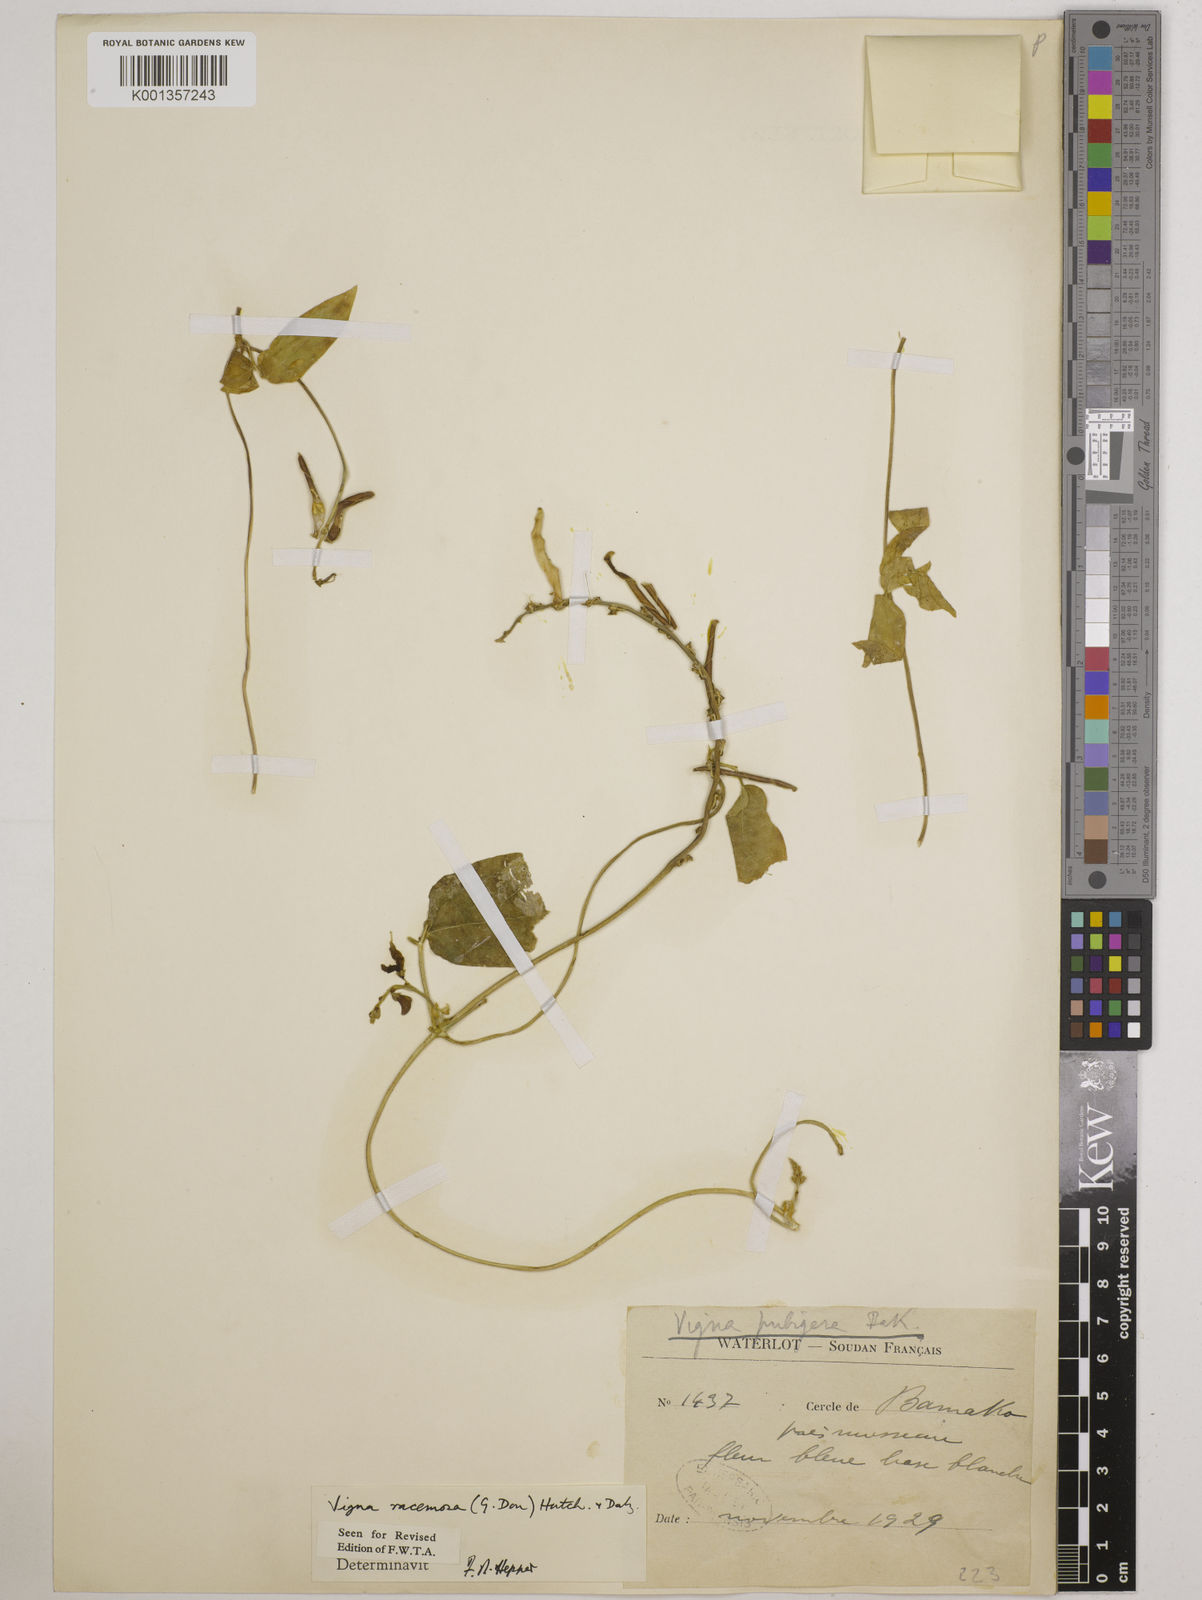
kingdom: Plantae
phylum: Tracheophyta
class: Magnoliopsida
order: Fabales
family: Fabaceae
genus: Vigna
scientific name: Vigna racemosa
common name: Beans not eaten
